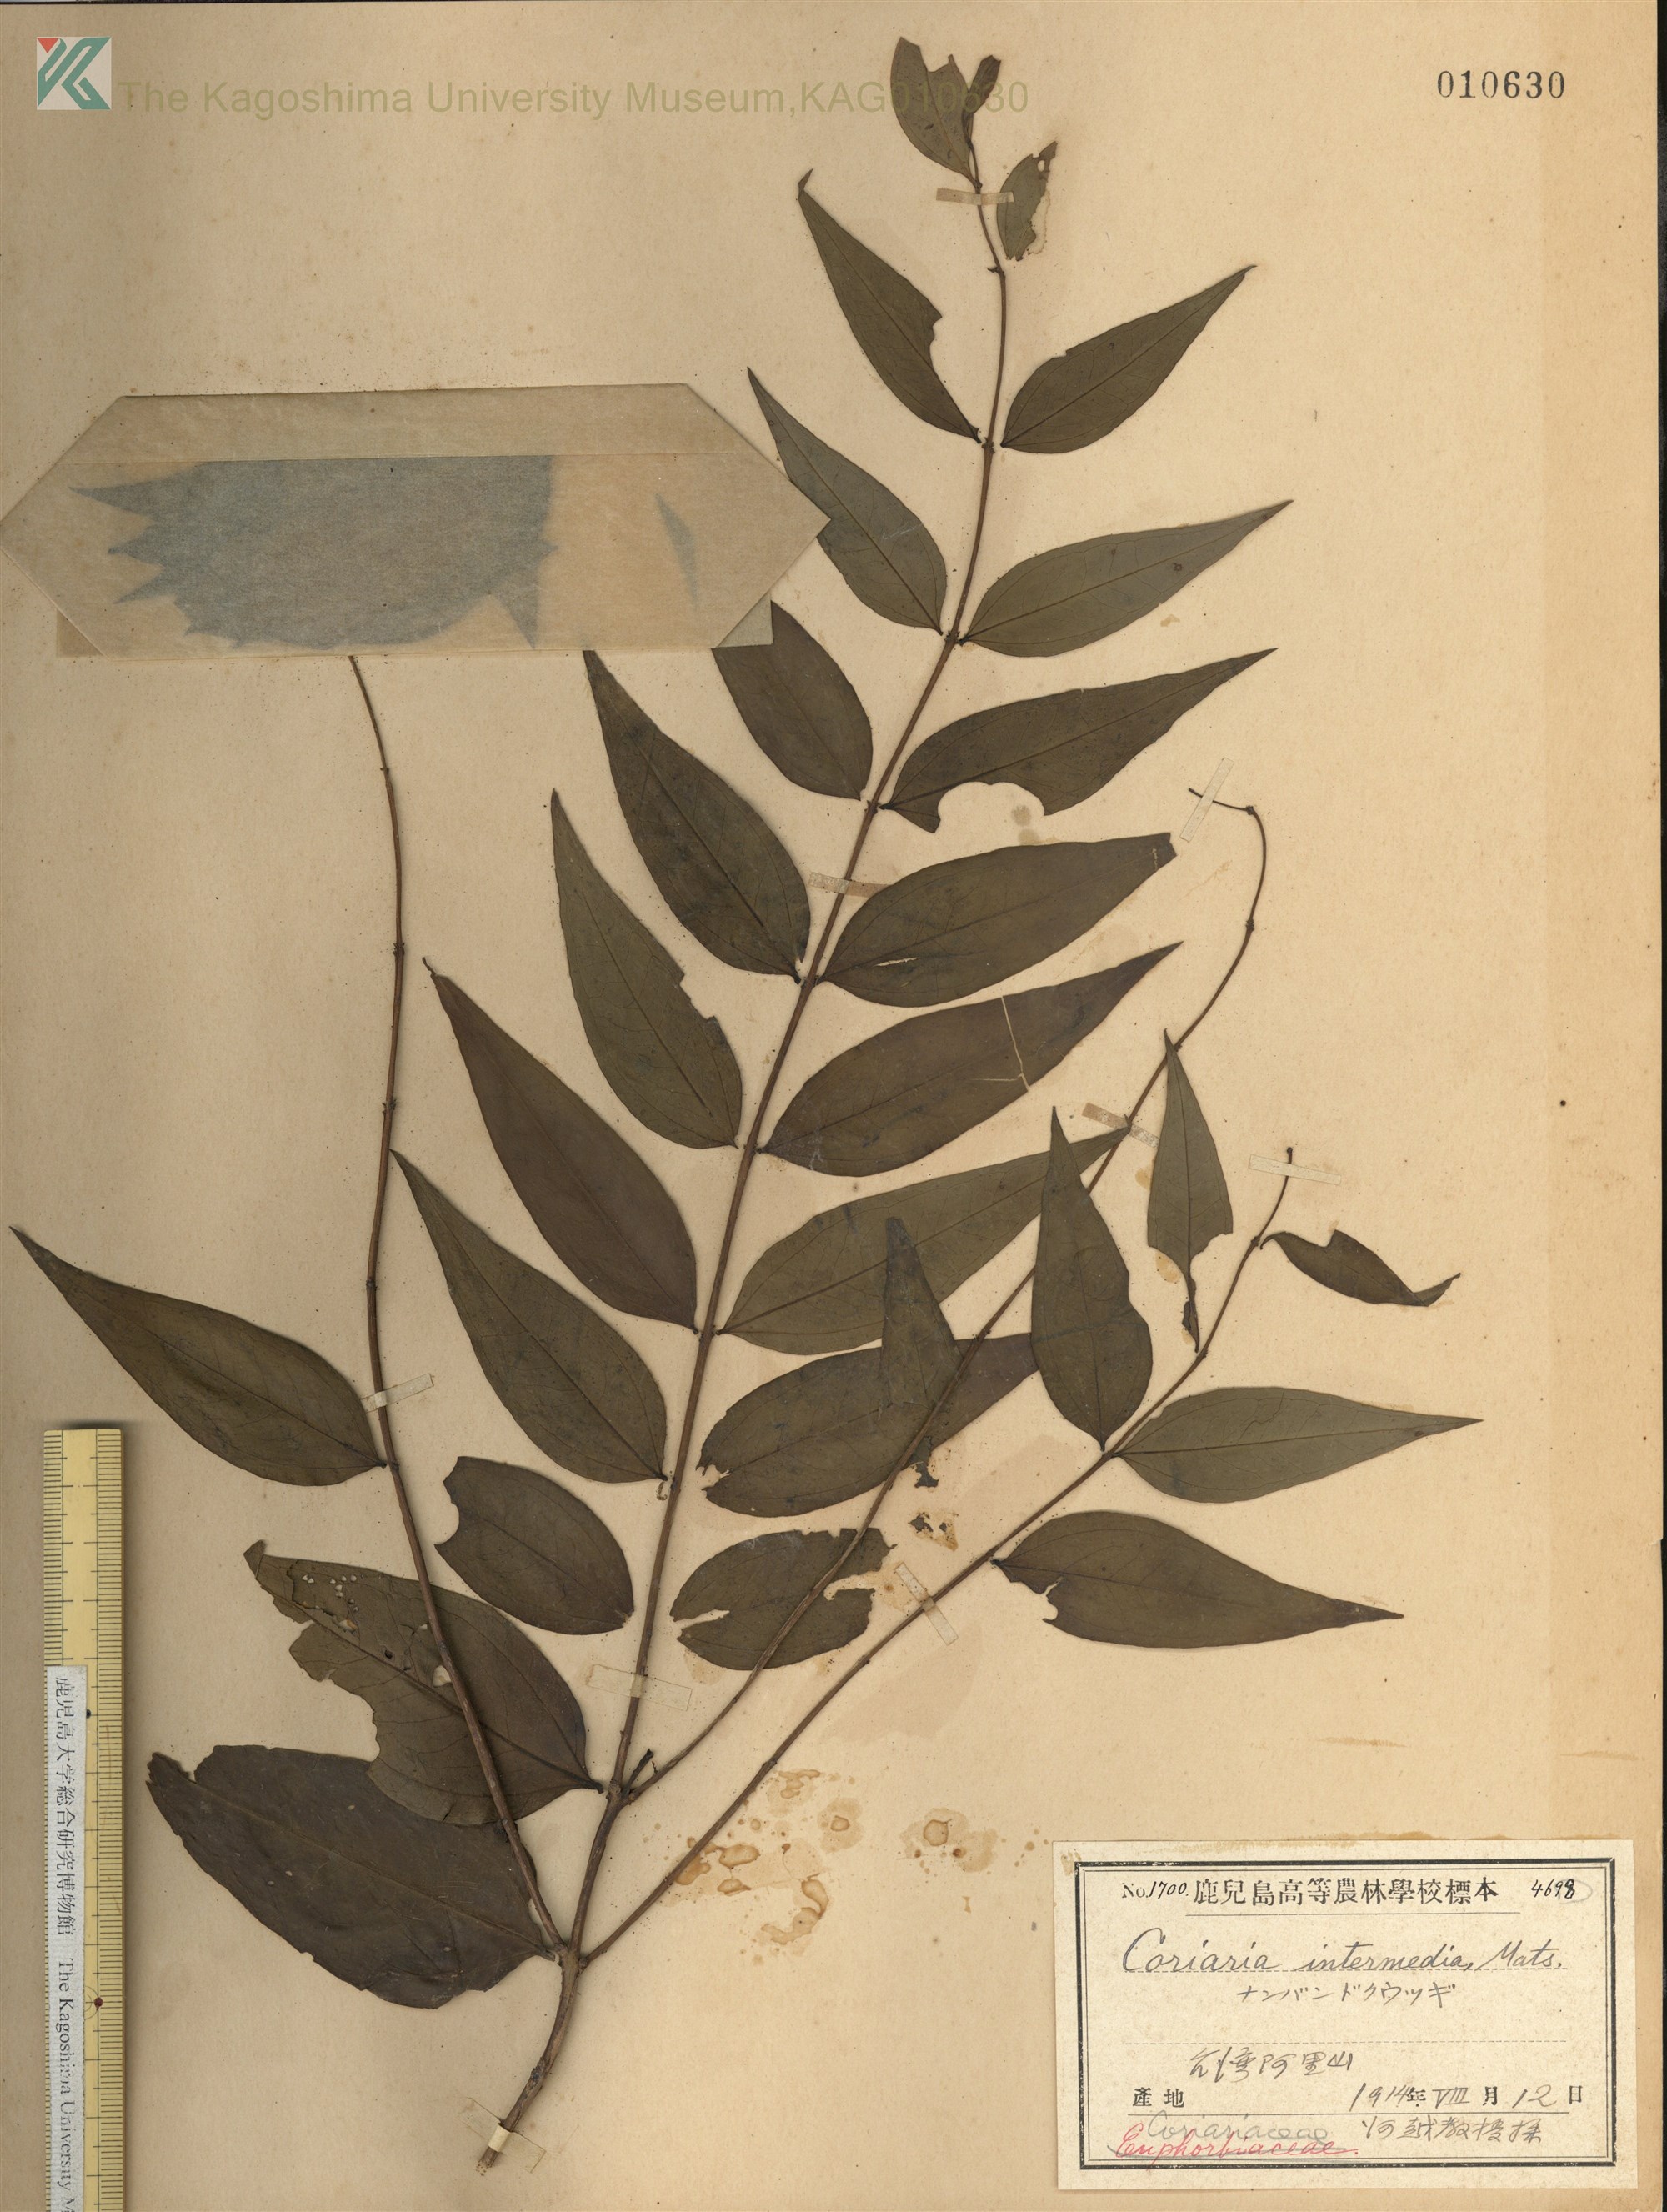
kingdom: Plantae
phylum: Tracheophyta
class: Magnoliopsida
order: Cucurbitales
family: Coriariaceae
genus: Coriaria
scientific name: Coriaria japonica
